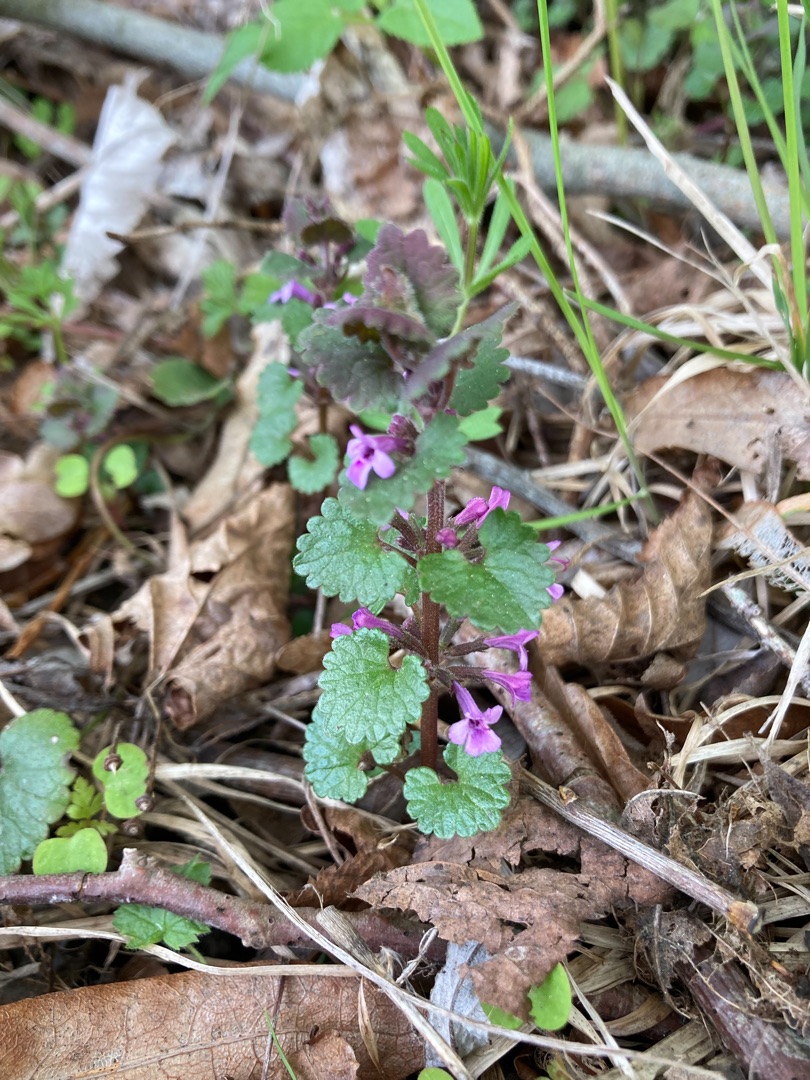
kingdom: Plantae
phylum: Tracheophyta
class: Magnoliopsida
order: Lamiales
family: Lamiaceae
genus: Glechoma
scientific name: Glechoma hederacea
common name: Korsknap
